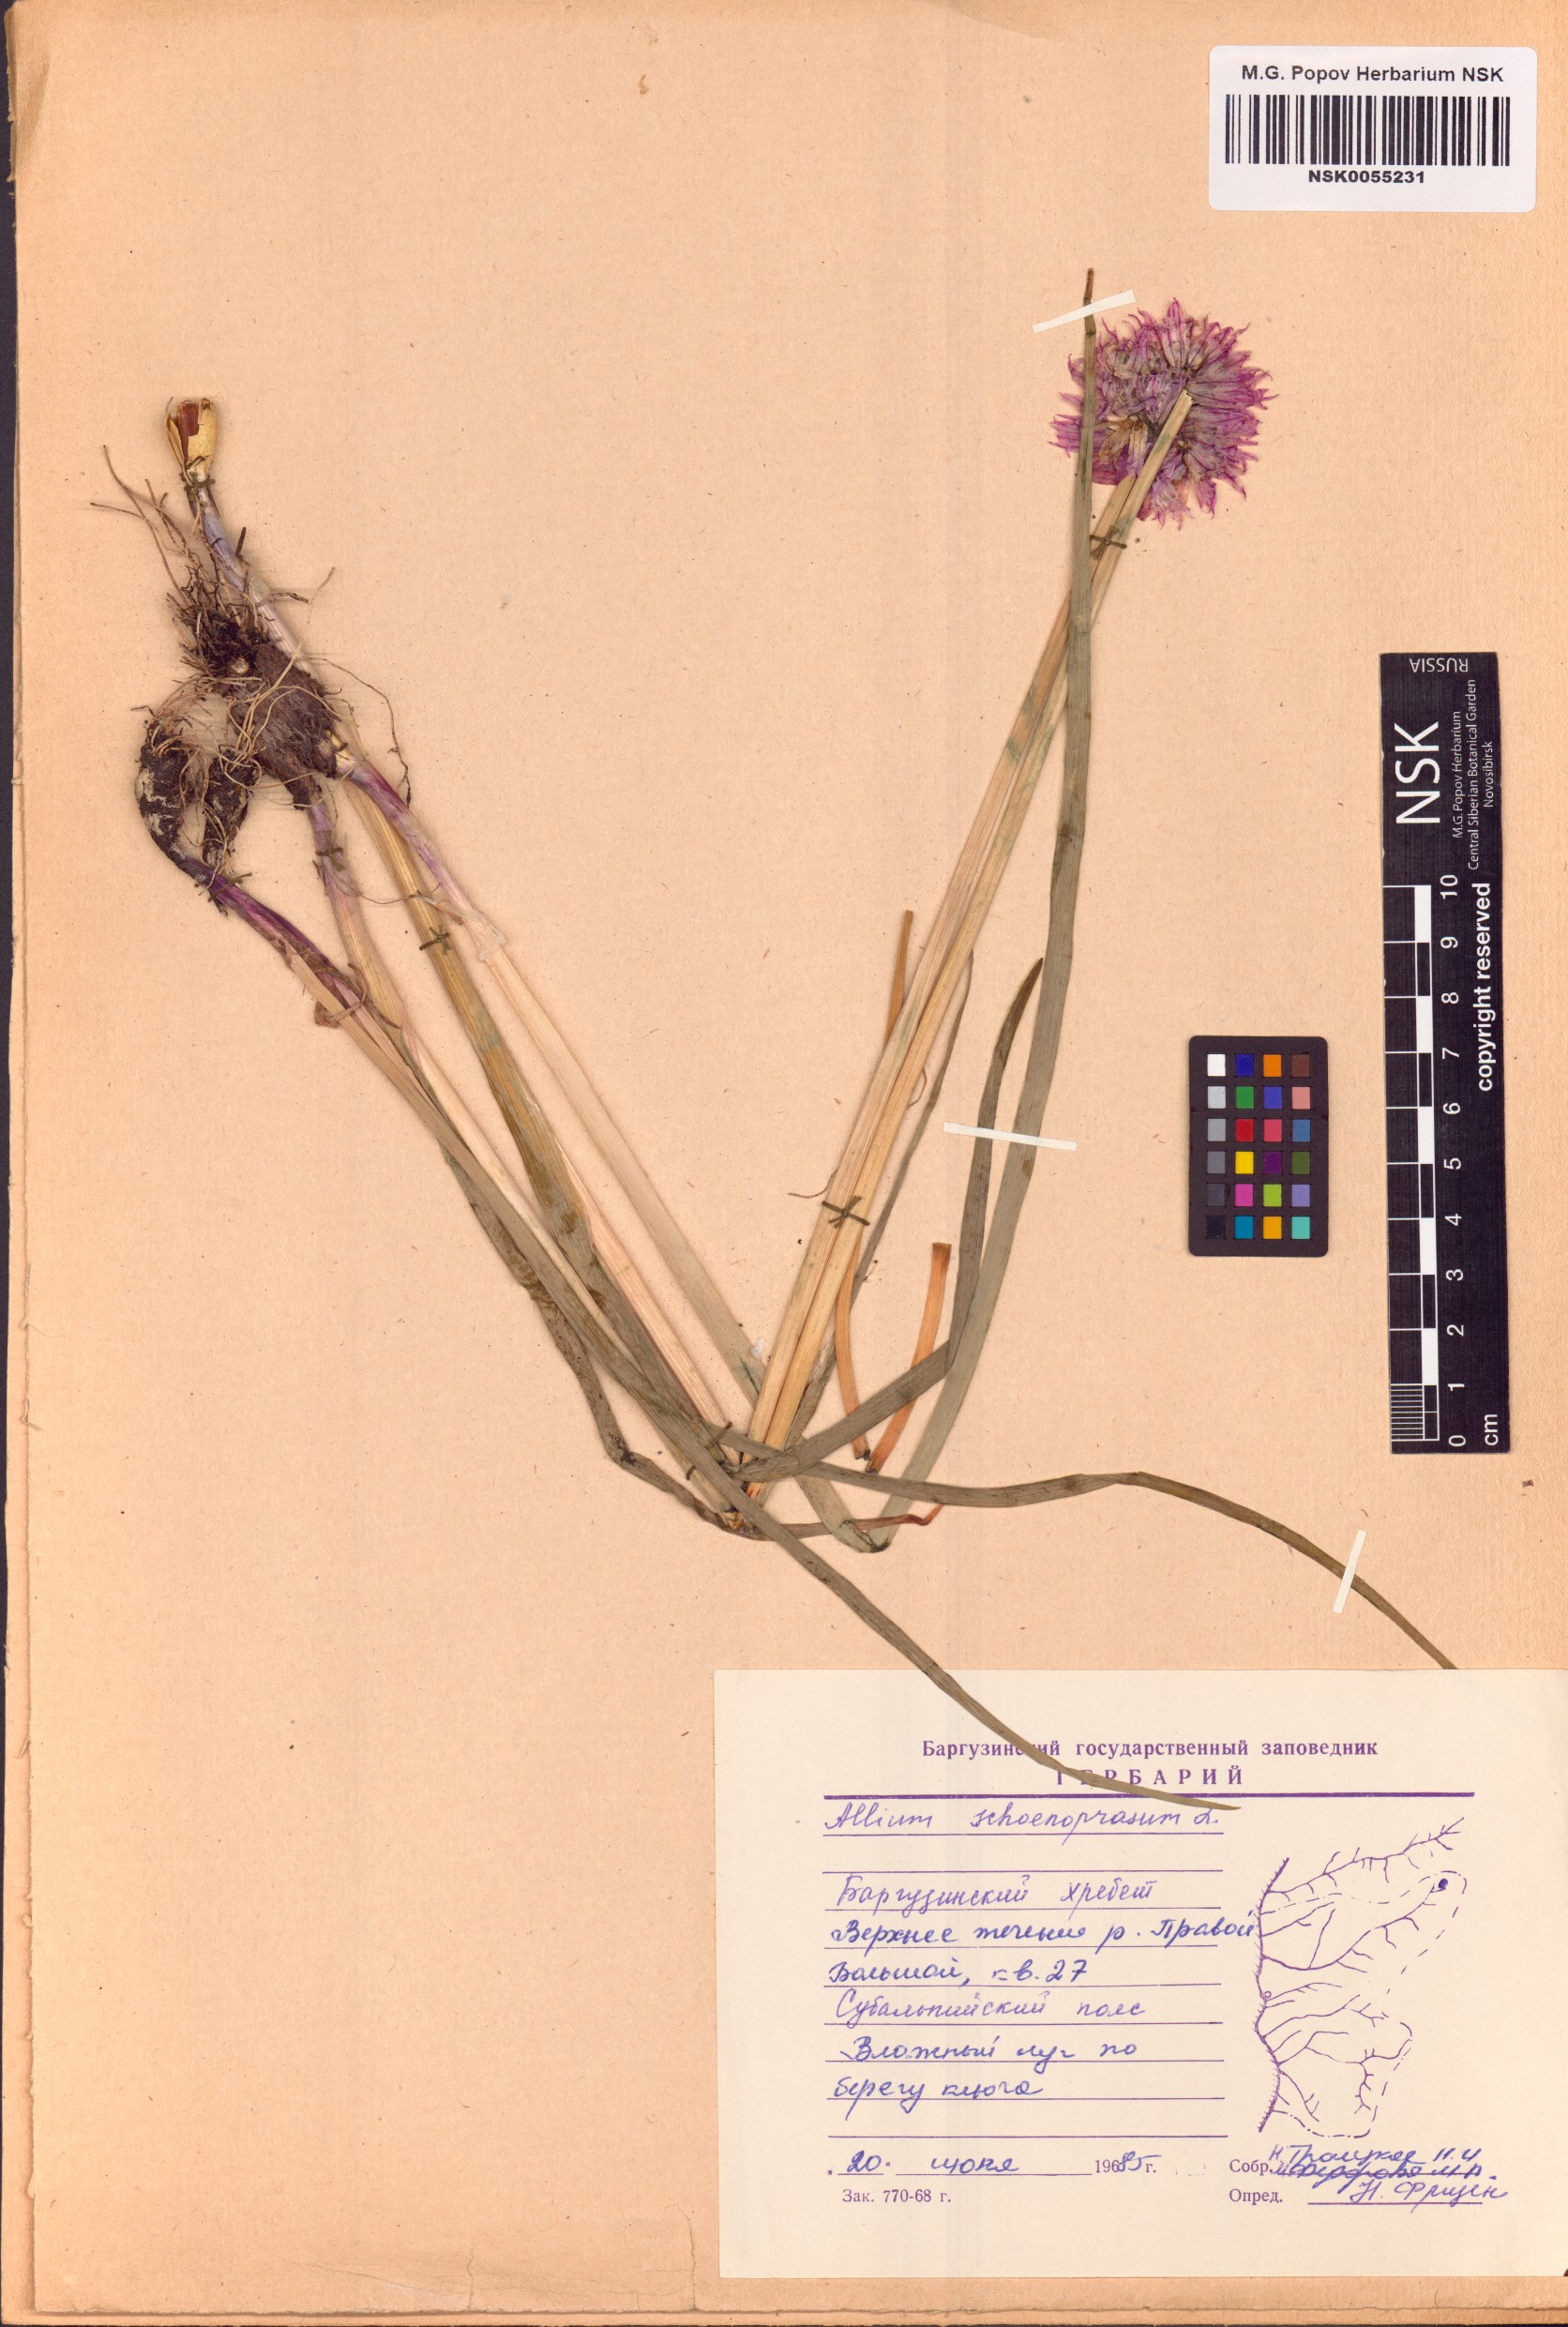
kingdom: Plantae
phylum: Tracheophyta
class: Liliopsida
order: Asparagales
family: Amaryllidaceae
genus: Allium
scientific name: Allium schoenoprasum
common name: Chives
